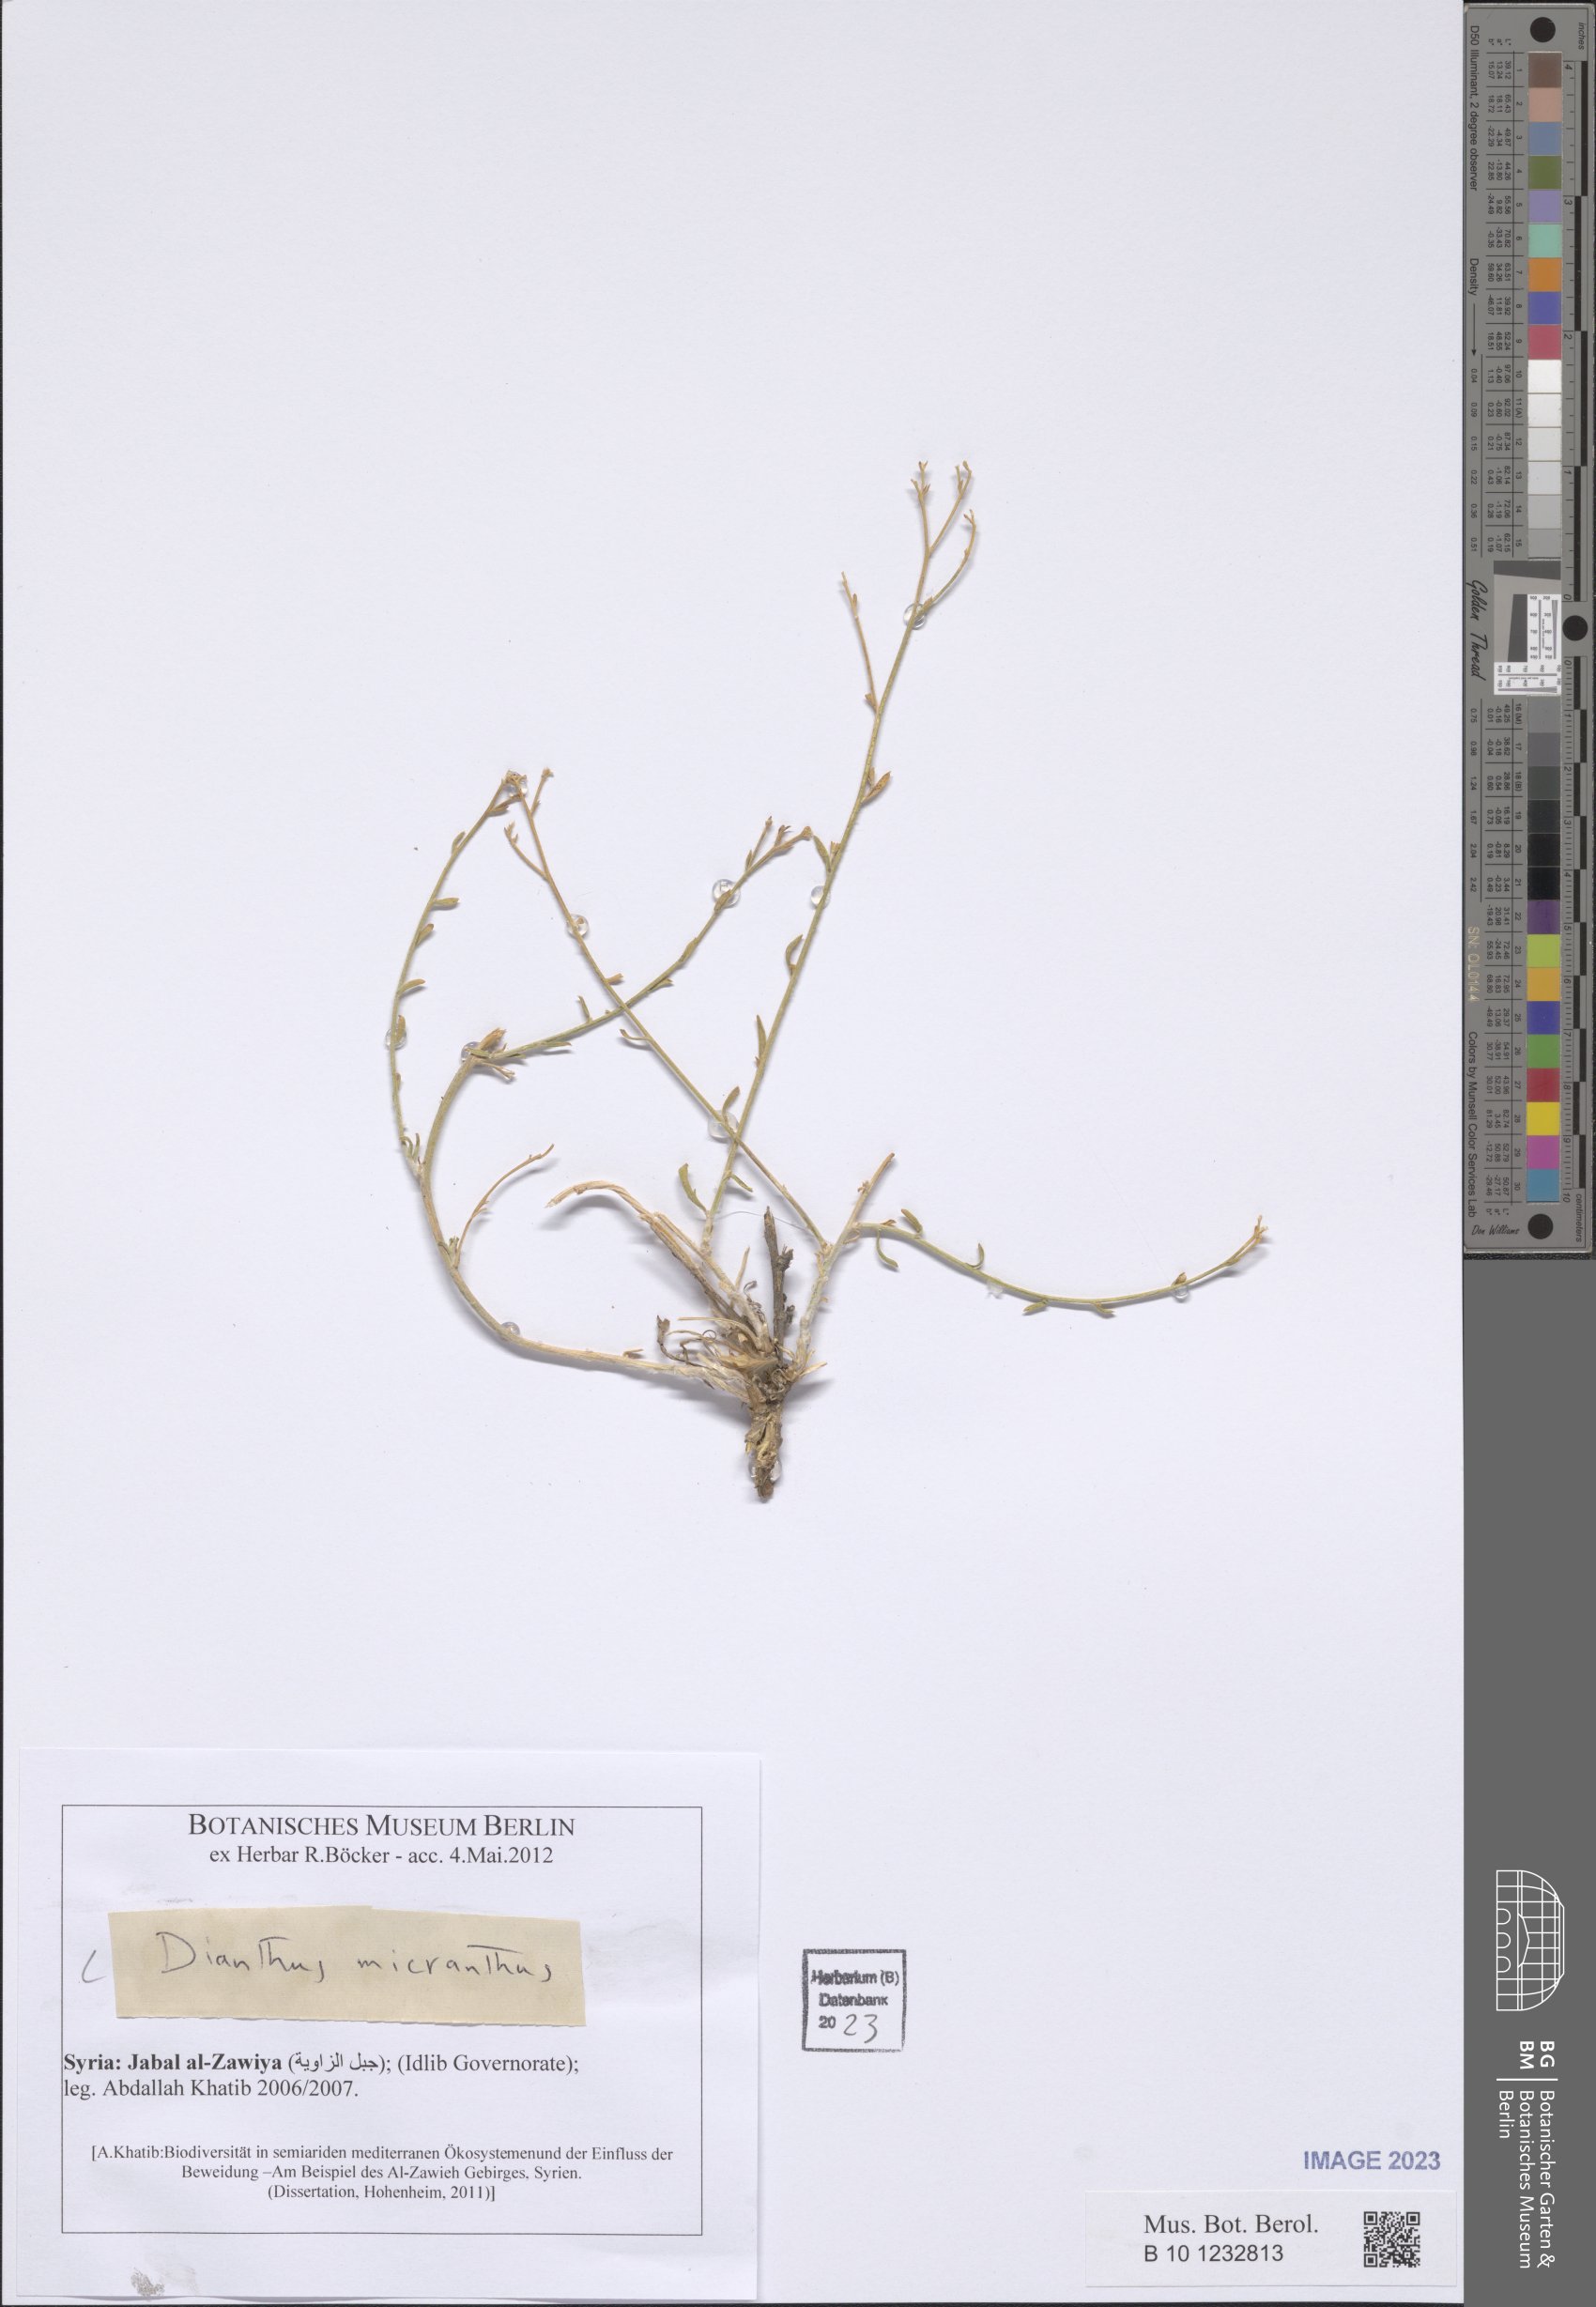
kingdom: Plantae
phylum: Tracheophyta
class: Magnoliopsida
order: Caryophyllales
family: Caryophyllaceae
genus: Dianthus
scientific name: Dianthus micranthus
